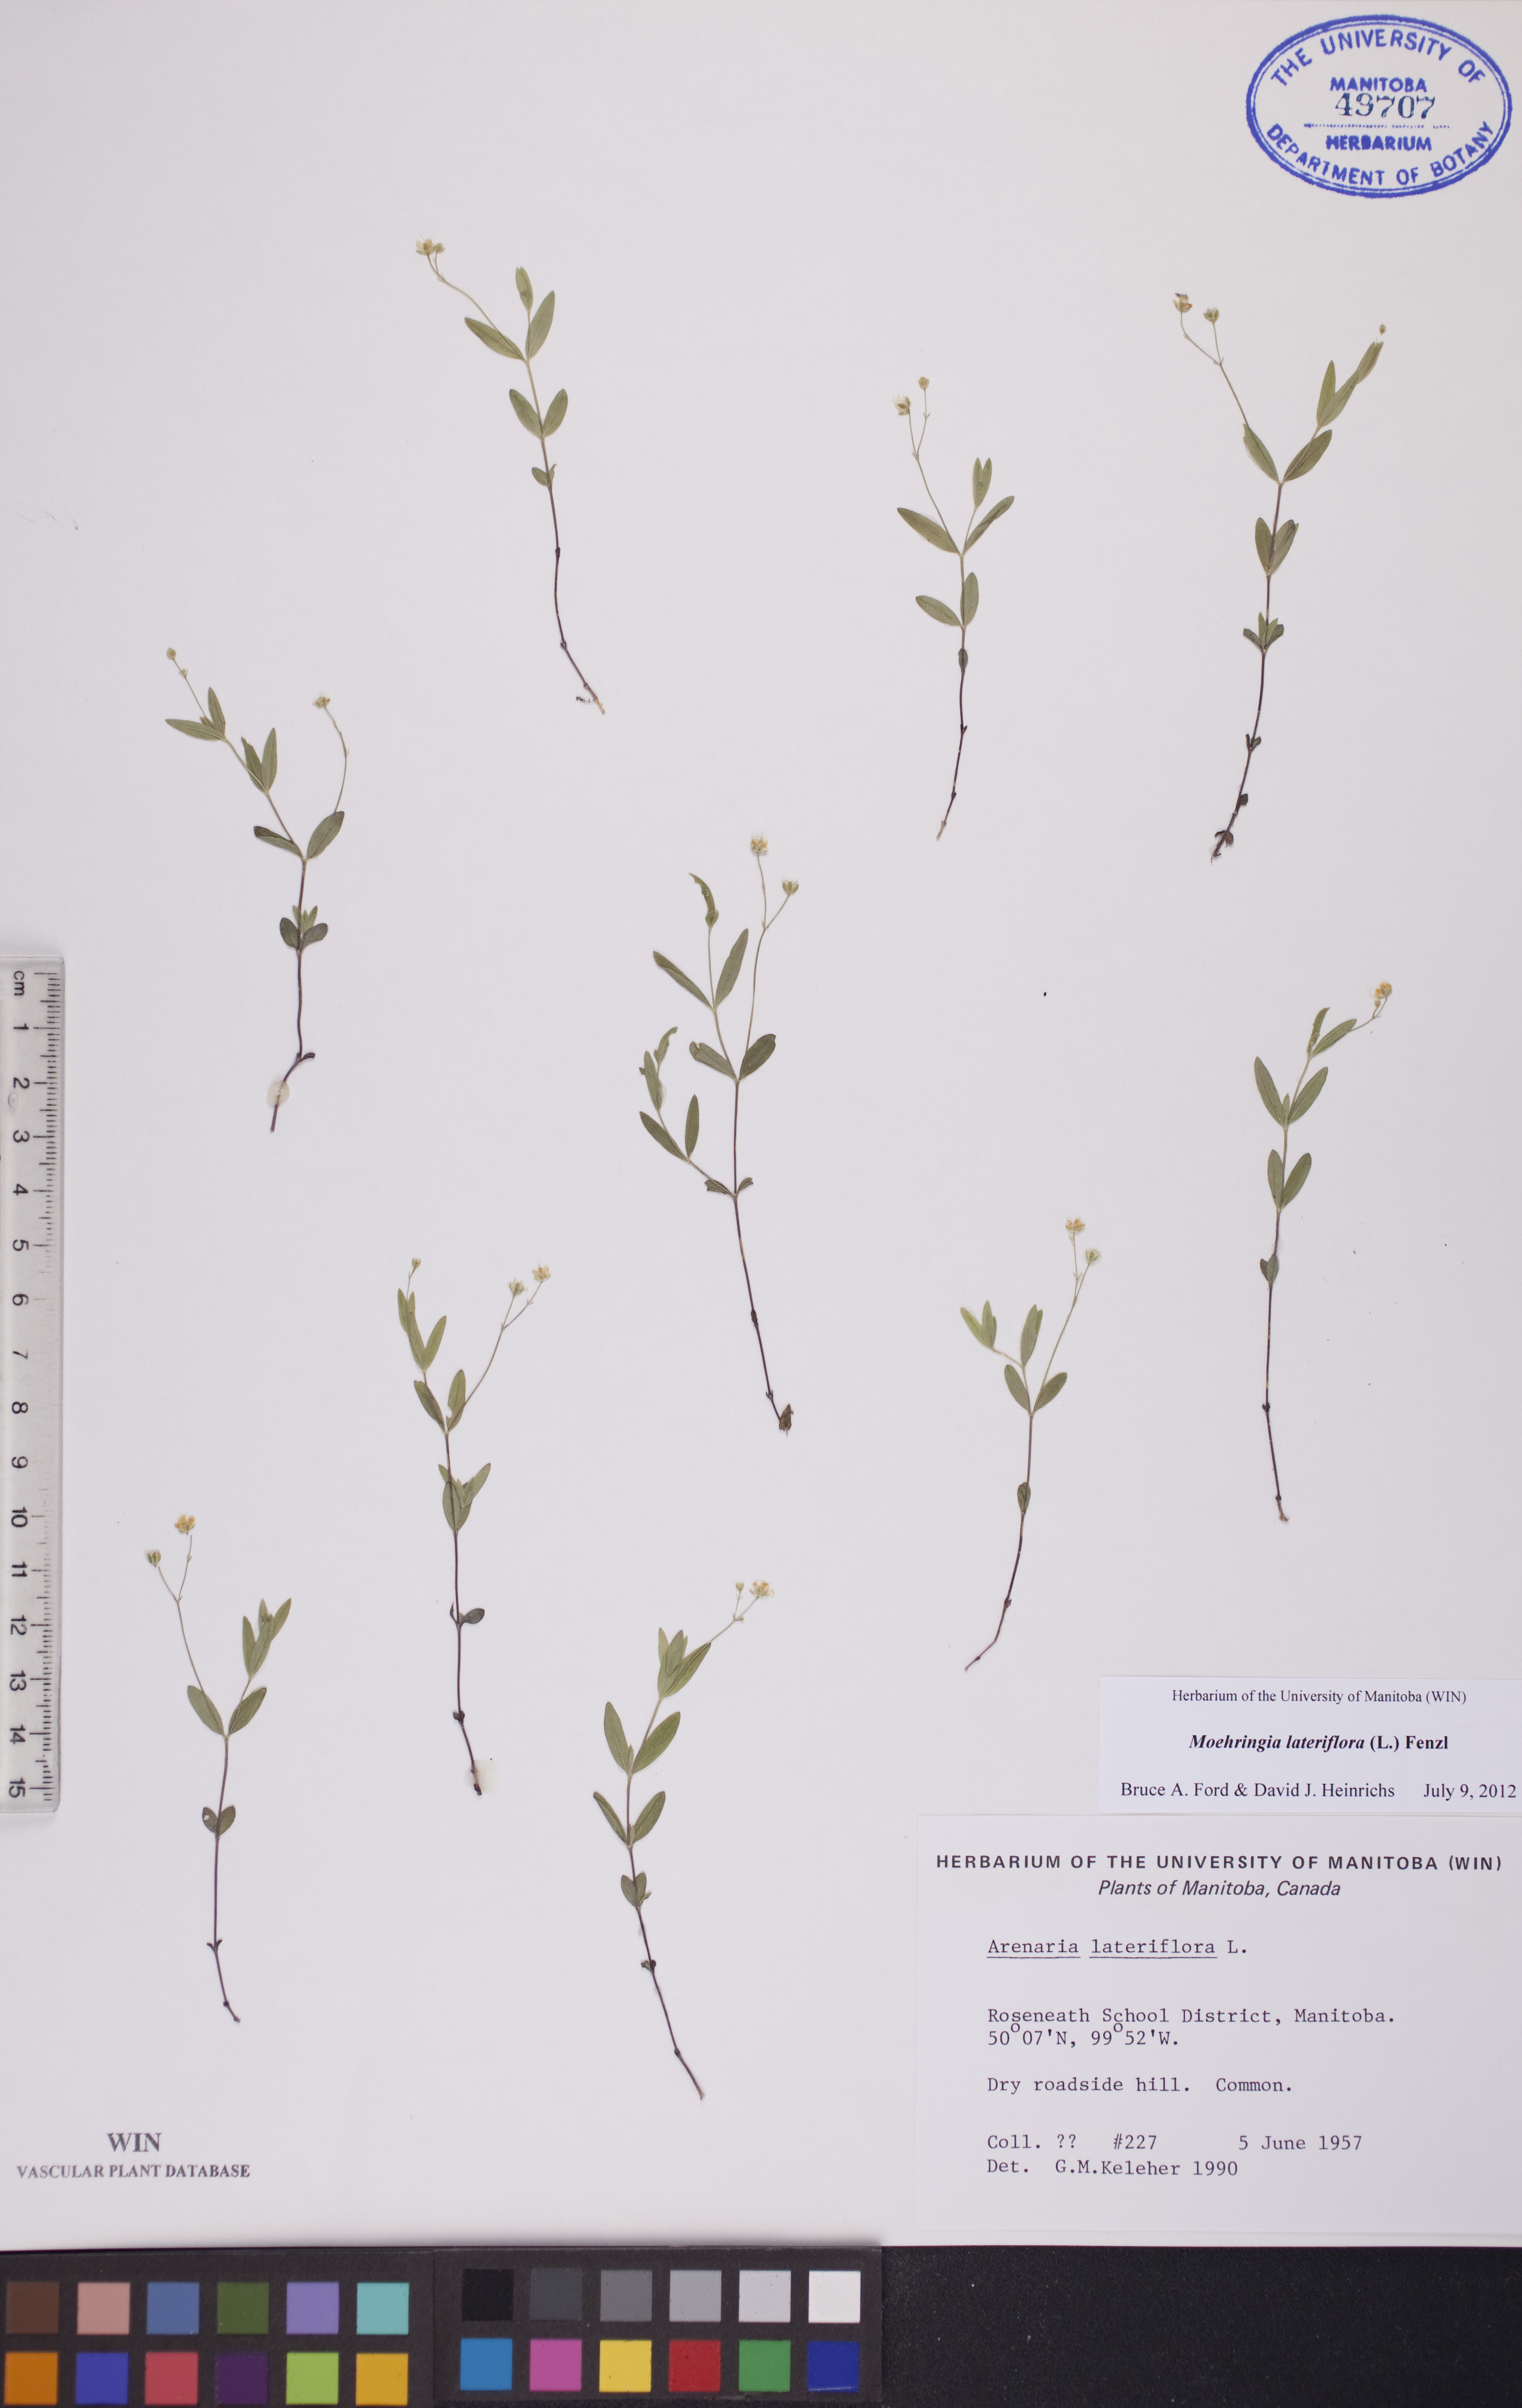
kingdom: Plantae
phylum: Tracheophyta
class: Magnoliopsida
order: Caryophyllales
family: Caryophyllaceae
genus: Moehringia
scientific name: Moehringia lateriflora
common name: Blunt-leaved sandwort
